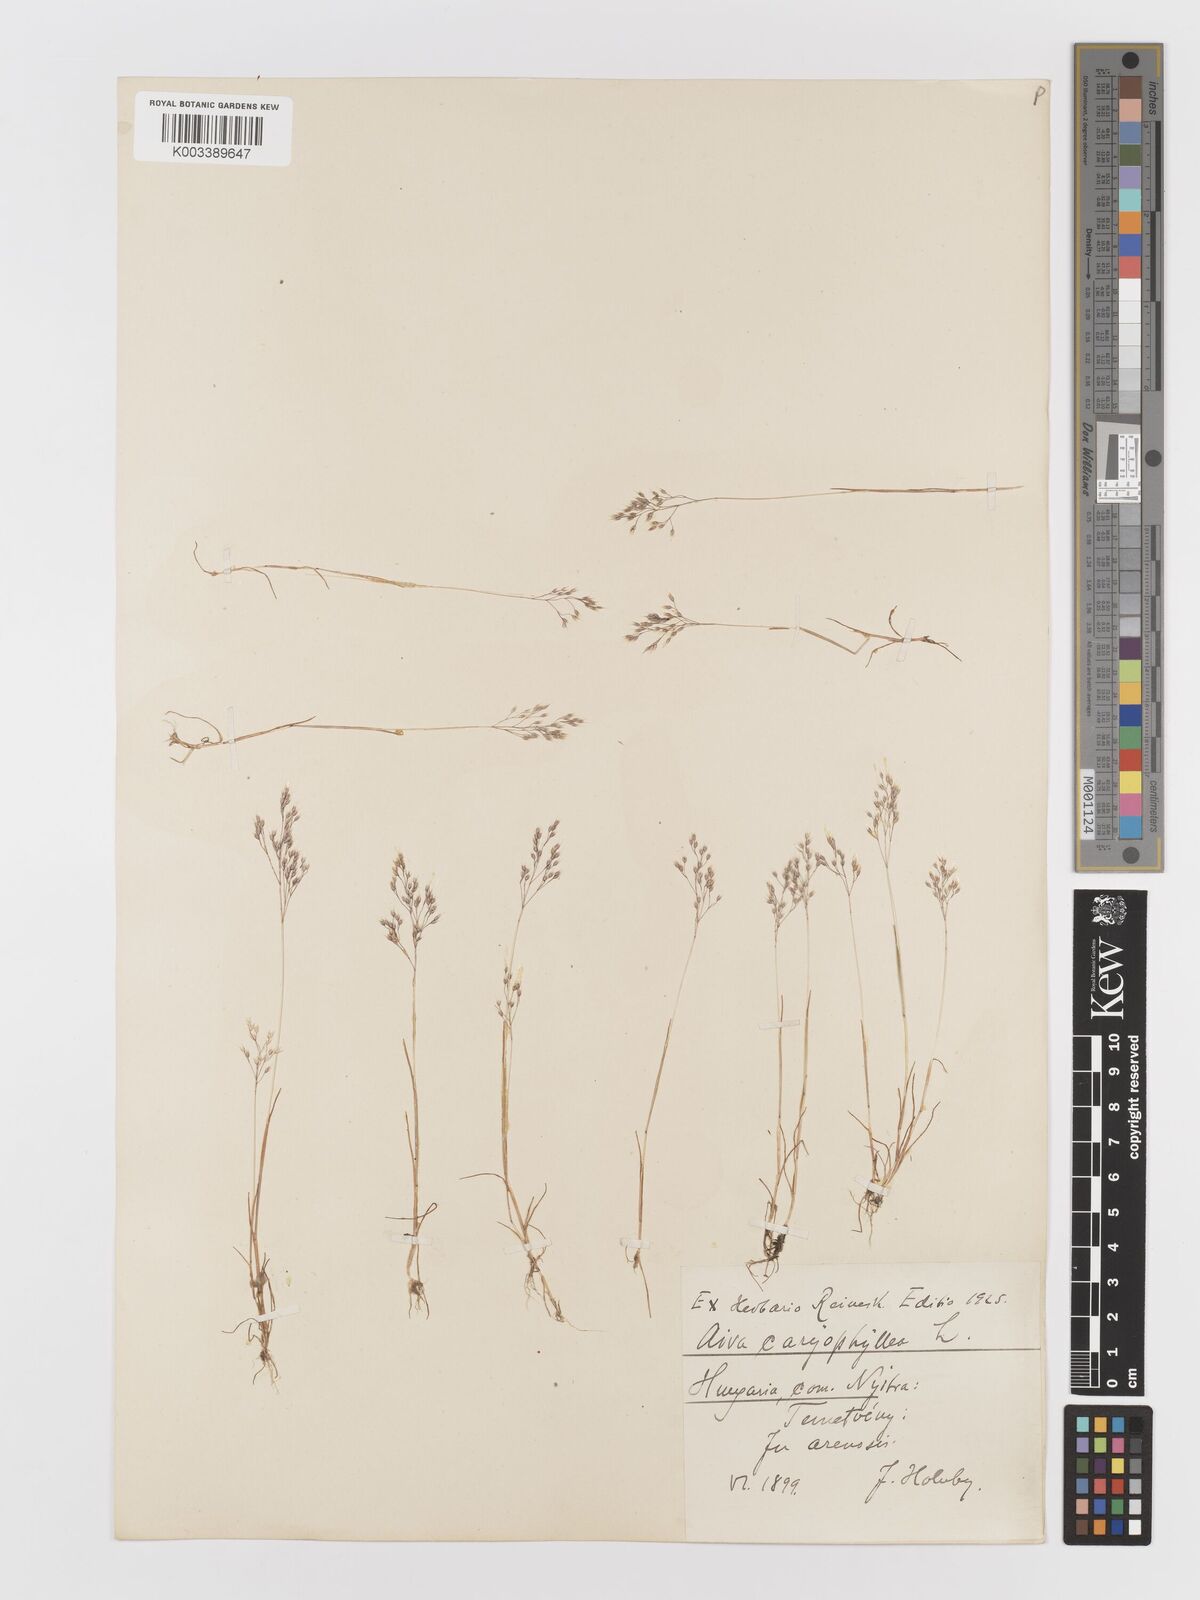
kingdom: Plantae
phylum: Tracheophyta
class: Liliopsida
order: Poales
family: Poaceae
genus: Aira
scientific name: Aira caryophyllea
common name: Silver hairgrass
